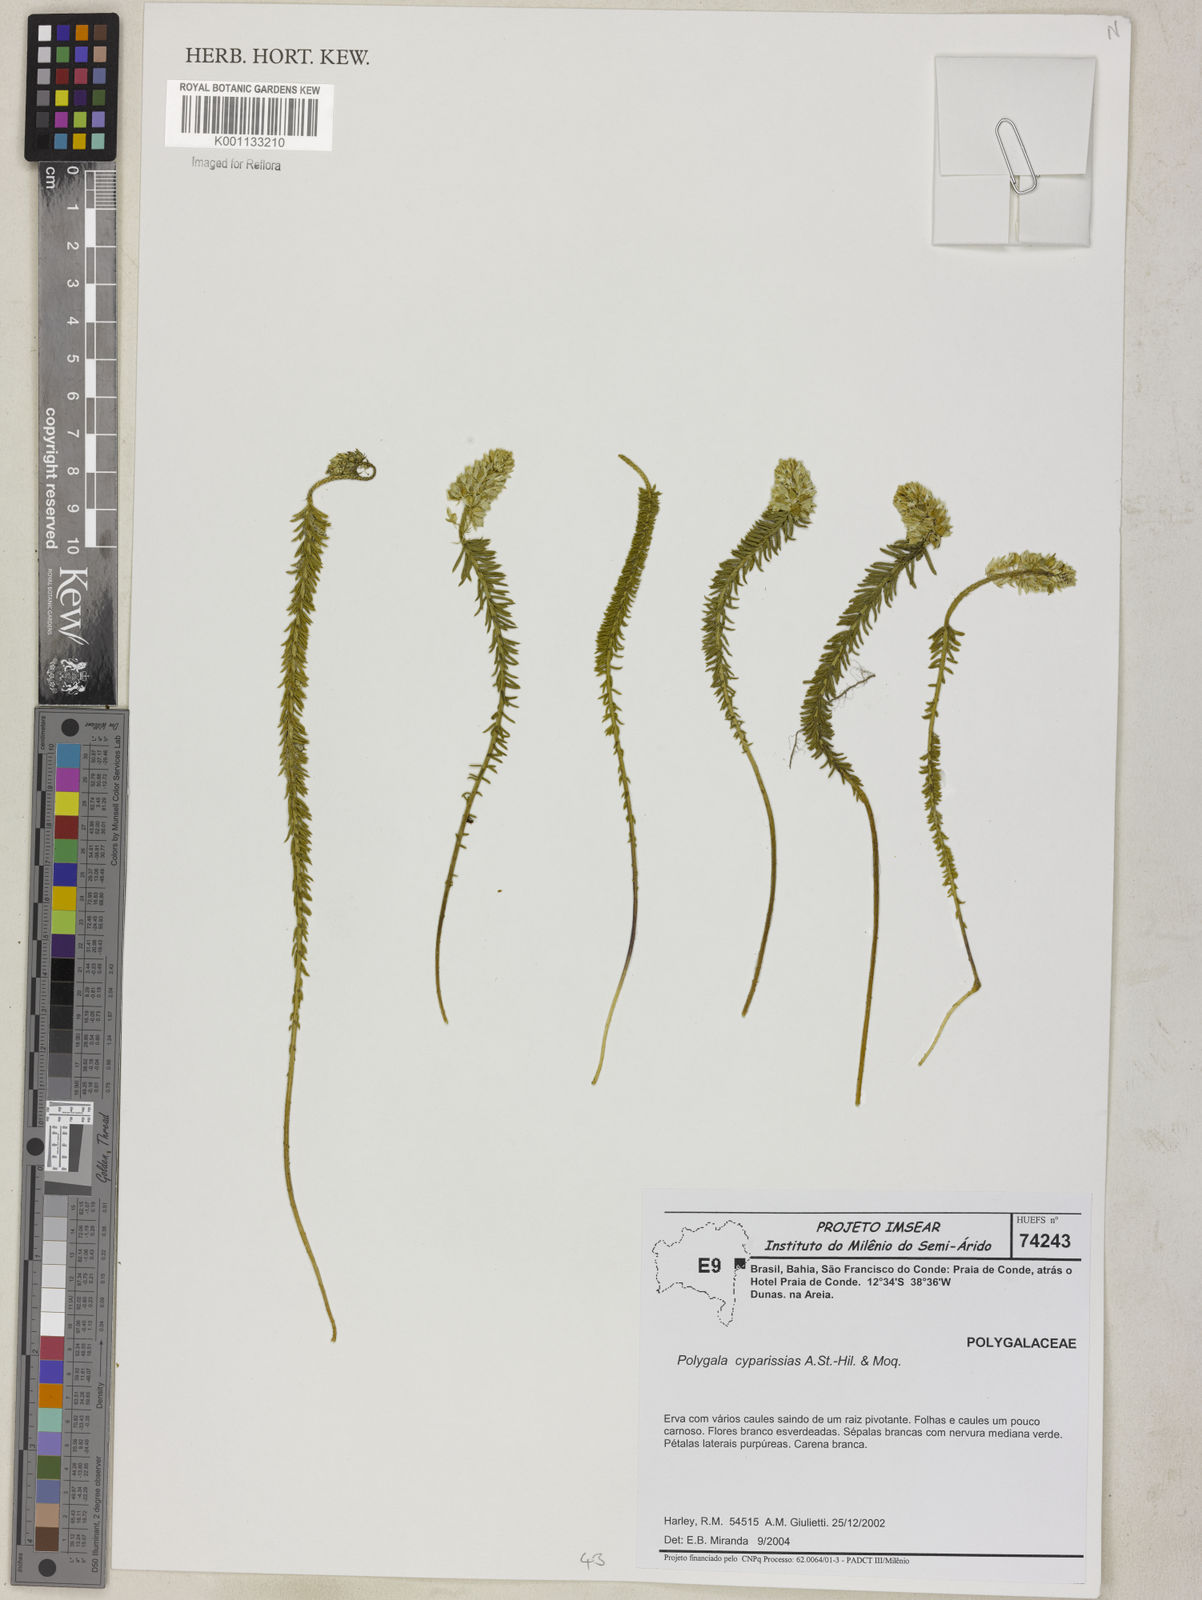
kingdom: Plantae
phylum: Tracheophyta
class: Magnoliopsida
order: Fabales
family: Polygalaceae
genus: Polygala
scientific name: Polygala cyparissias
